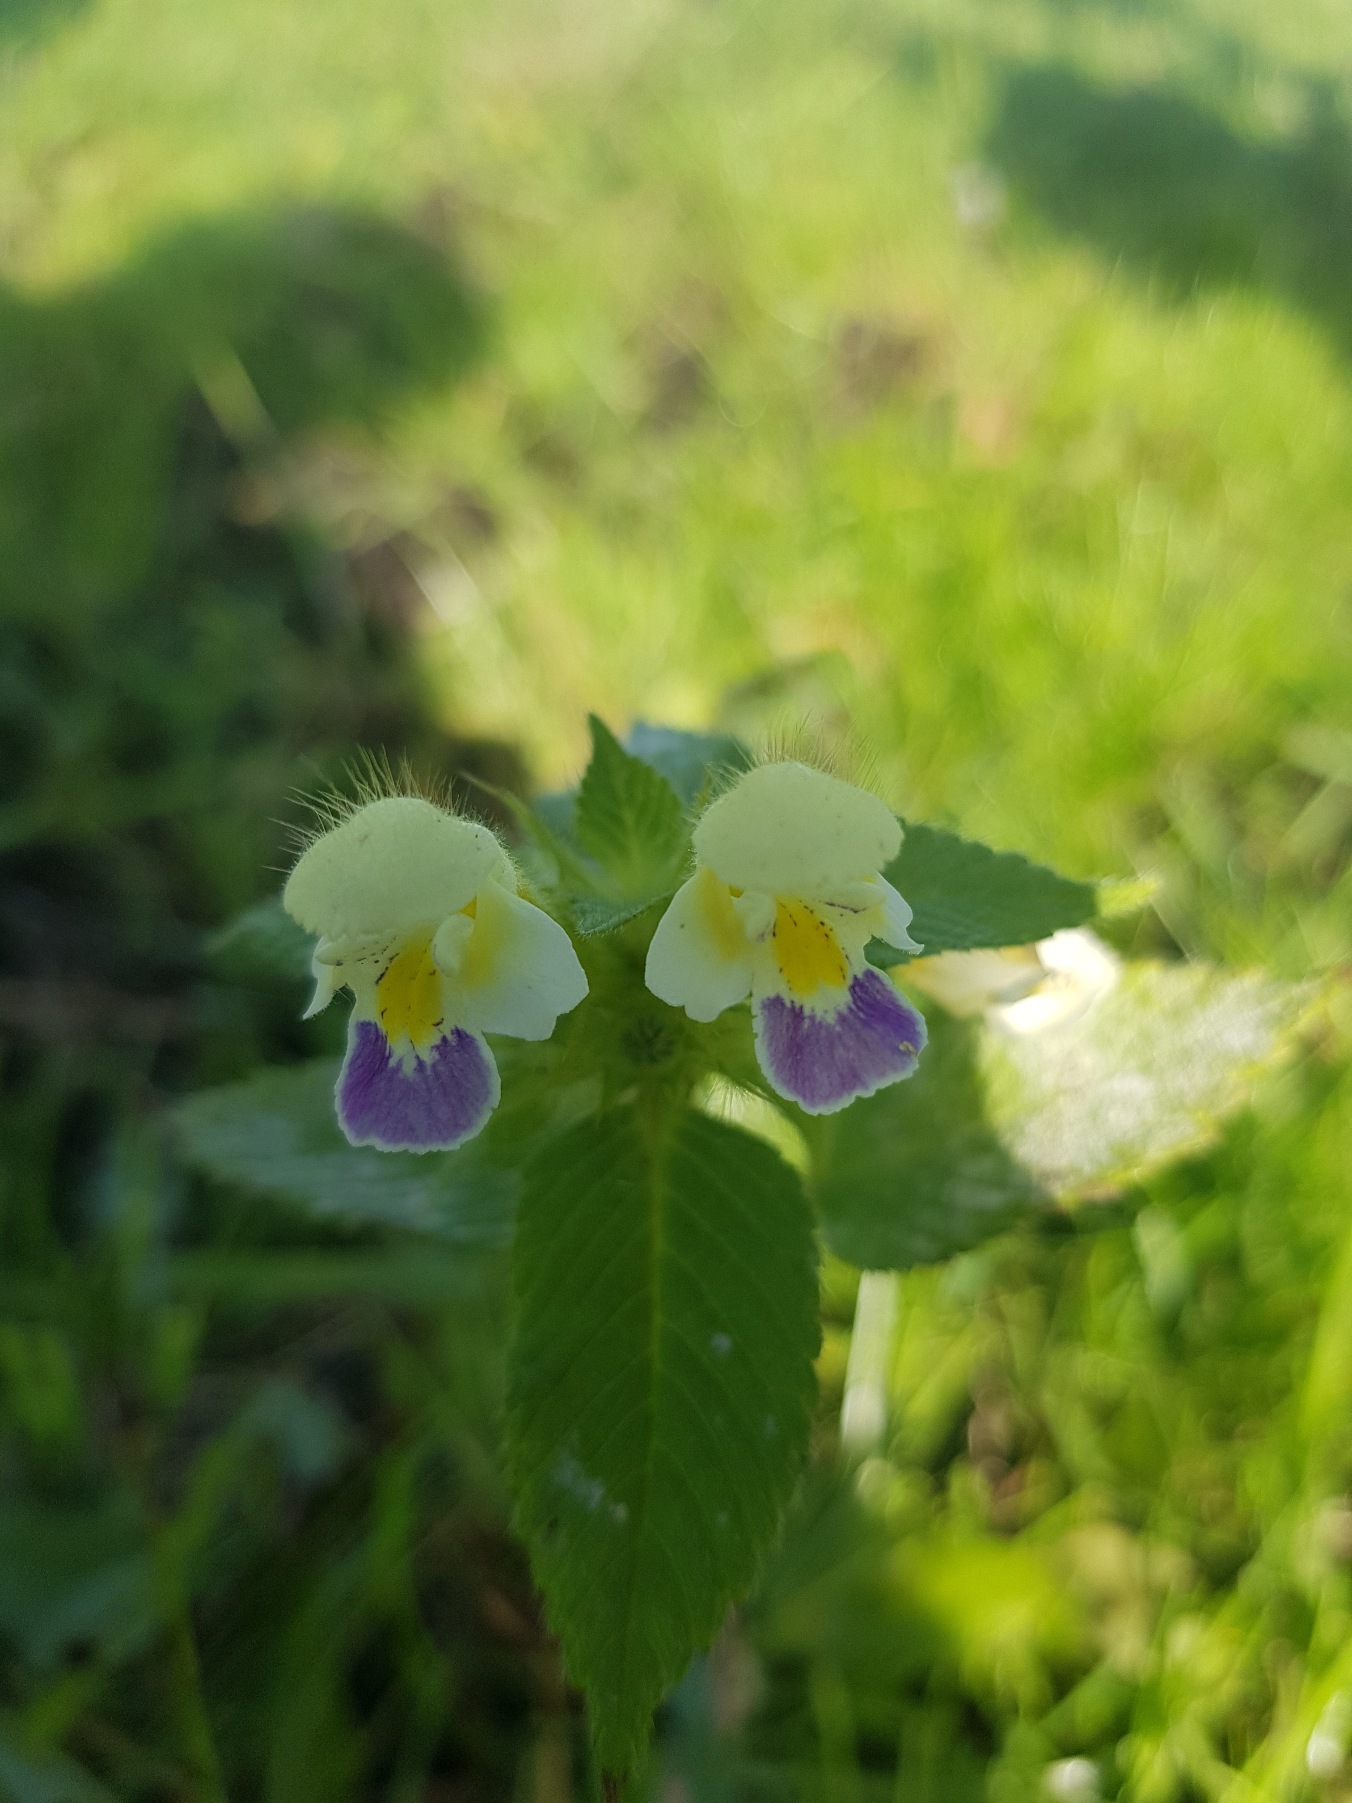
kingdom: Plantae
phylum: Tracheophyta
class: Magnoliopsida
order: Lamiales
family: Lamiaceae
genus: Galeopsis
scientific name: Galeopsis speciosa
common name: Hamp-hanekro
